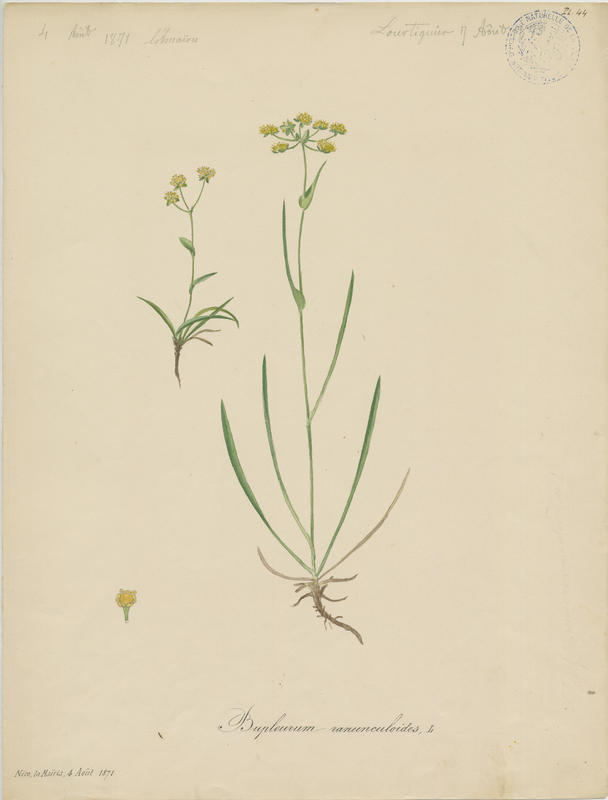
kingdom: Plantae
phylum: Tracheophyta
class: Magnoliopsida
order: Apiales
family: Apiaceae
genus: Bupleurum
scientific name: Bupleurum ranunculoides
